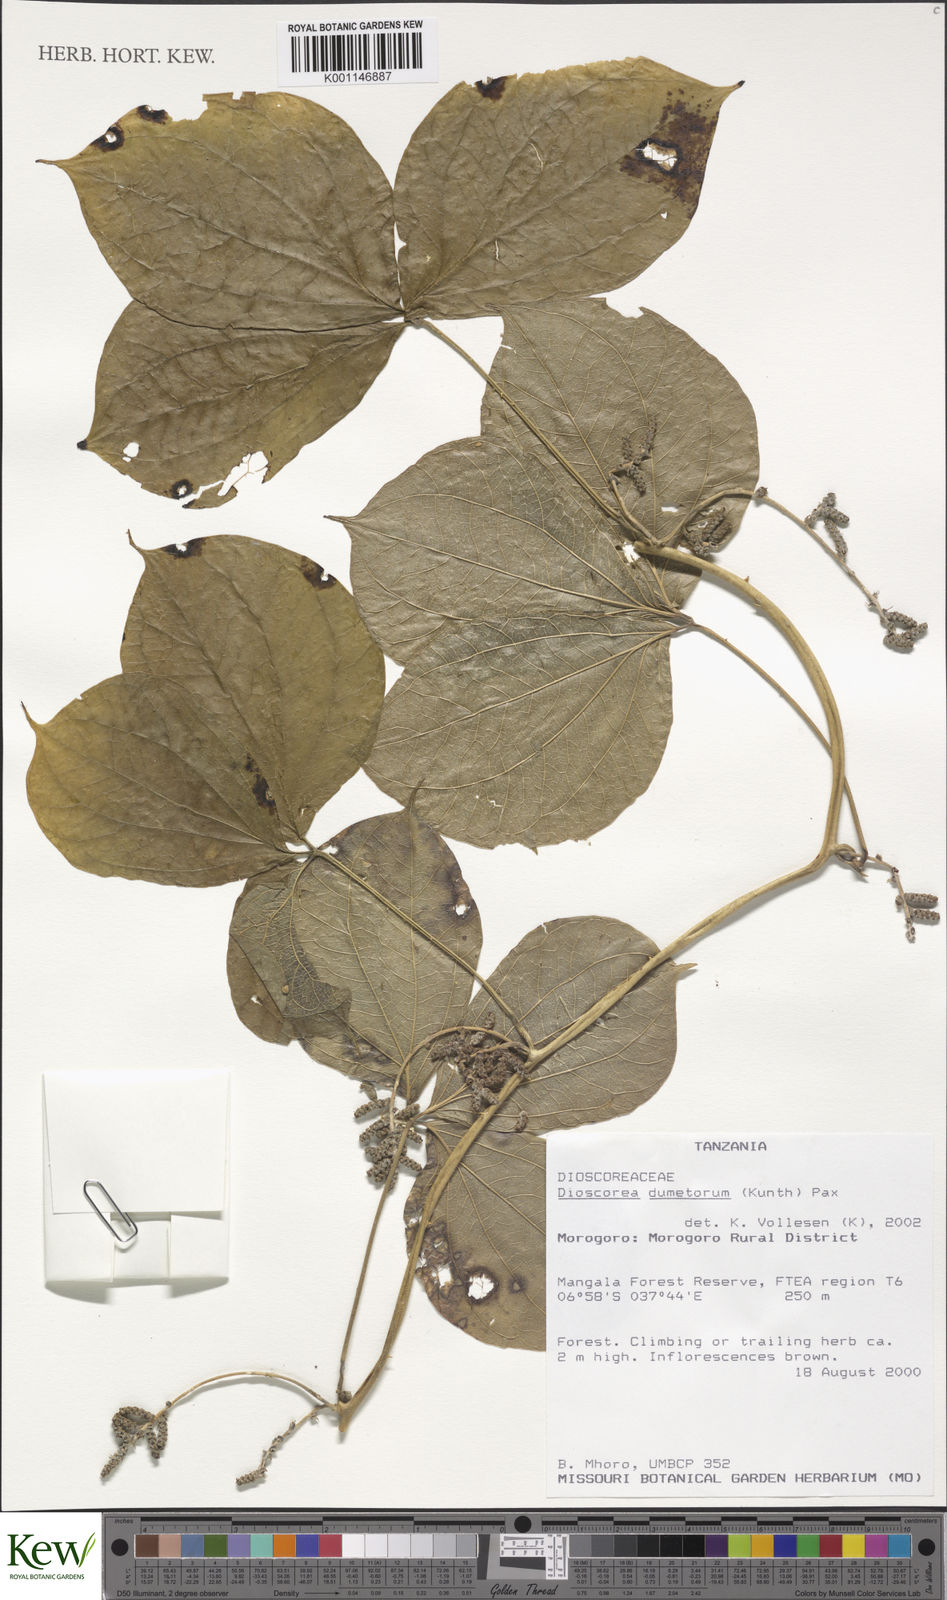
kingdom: Plantae
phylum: Tracheophyta
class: Liliopsida
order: Dioscoreales
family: Dioscoreaceae
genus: Dioscorea
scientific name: Dioscorea dumetorum
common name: African bitter yam
